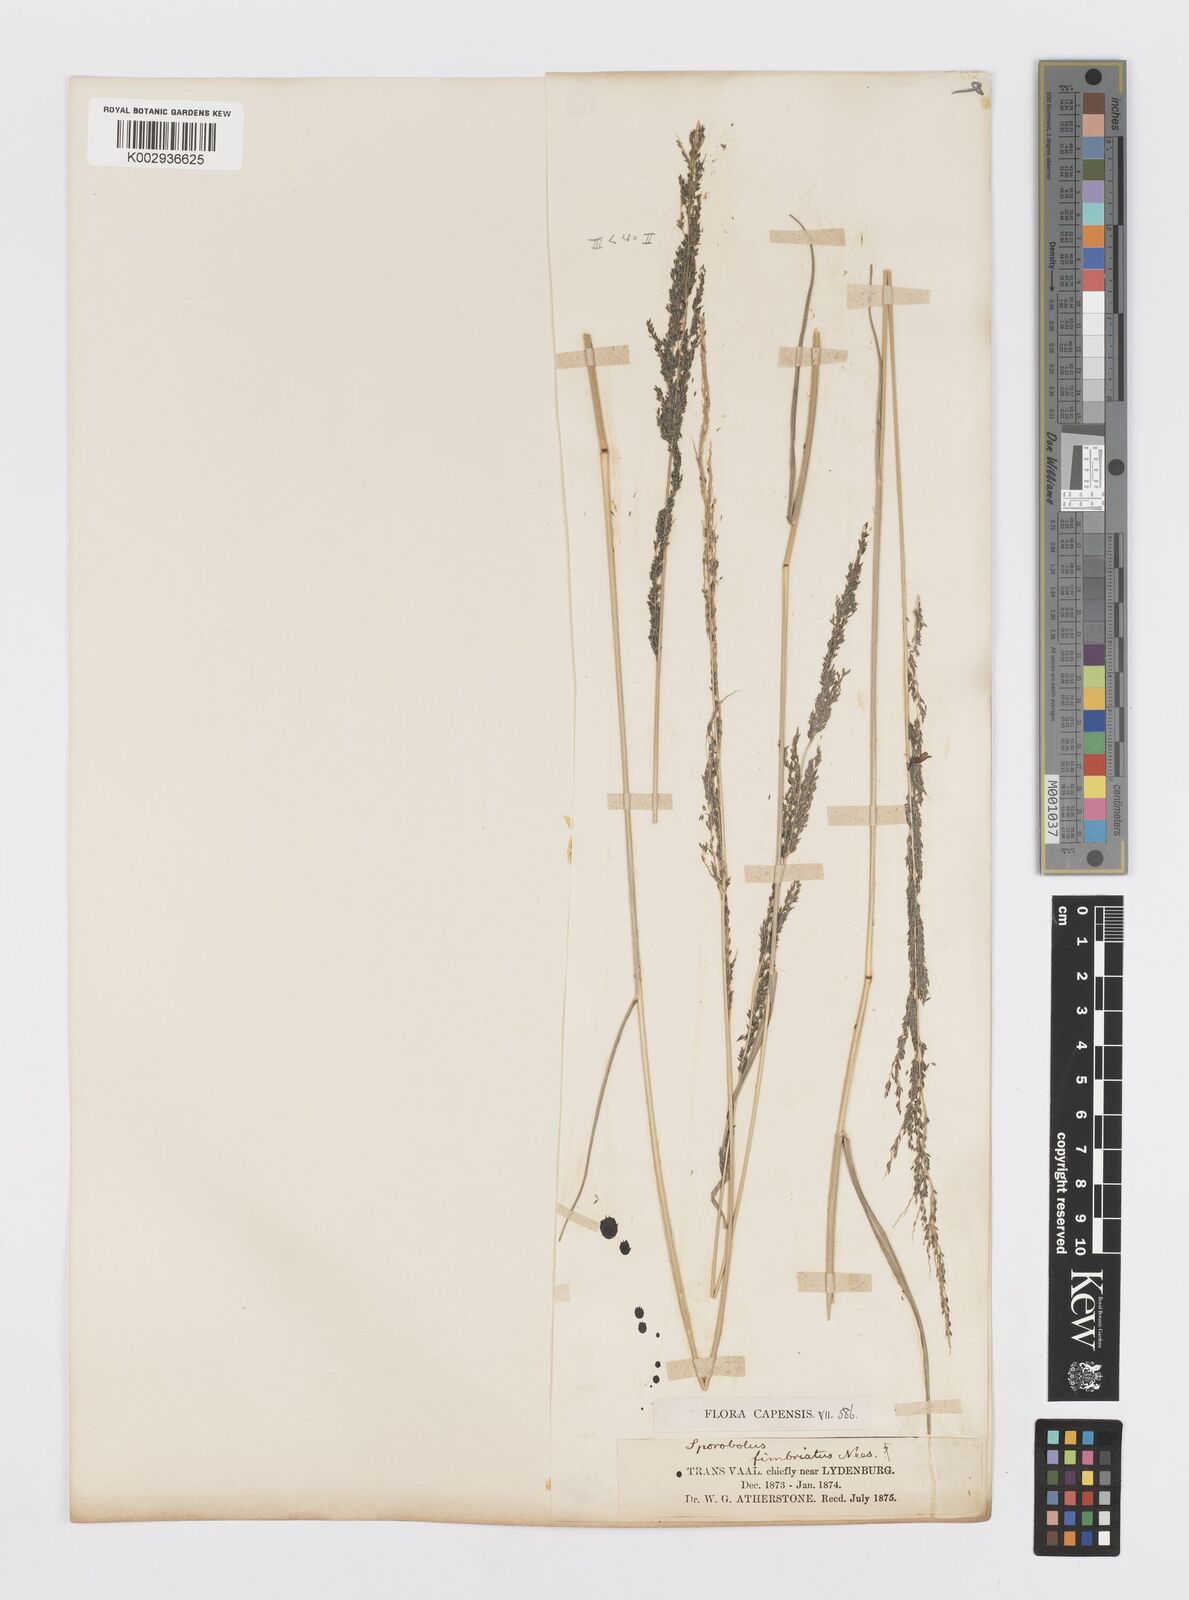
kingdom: Plantae
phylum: Tracheophyta
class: Liliopsida
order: Poales
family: Poaceae
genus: Sporobolus
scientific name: Sporobolus fimbriatus
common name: Fringed dropseed
